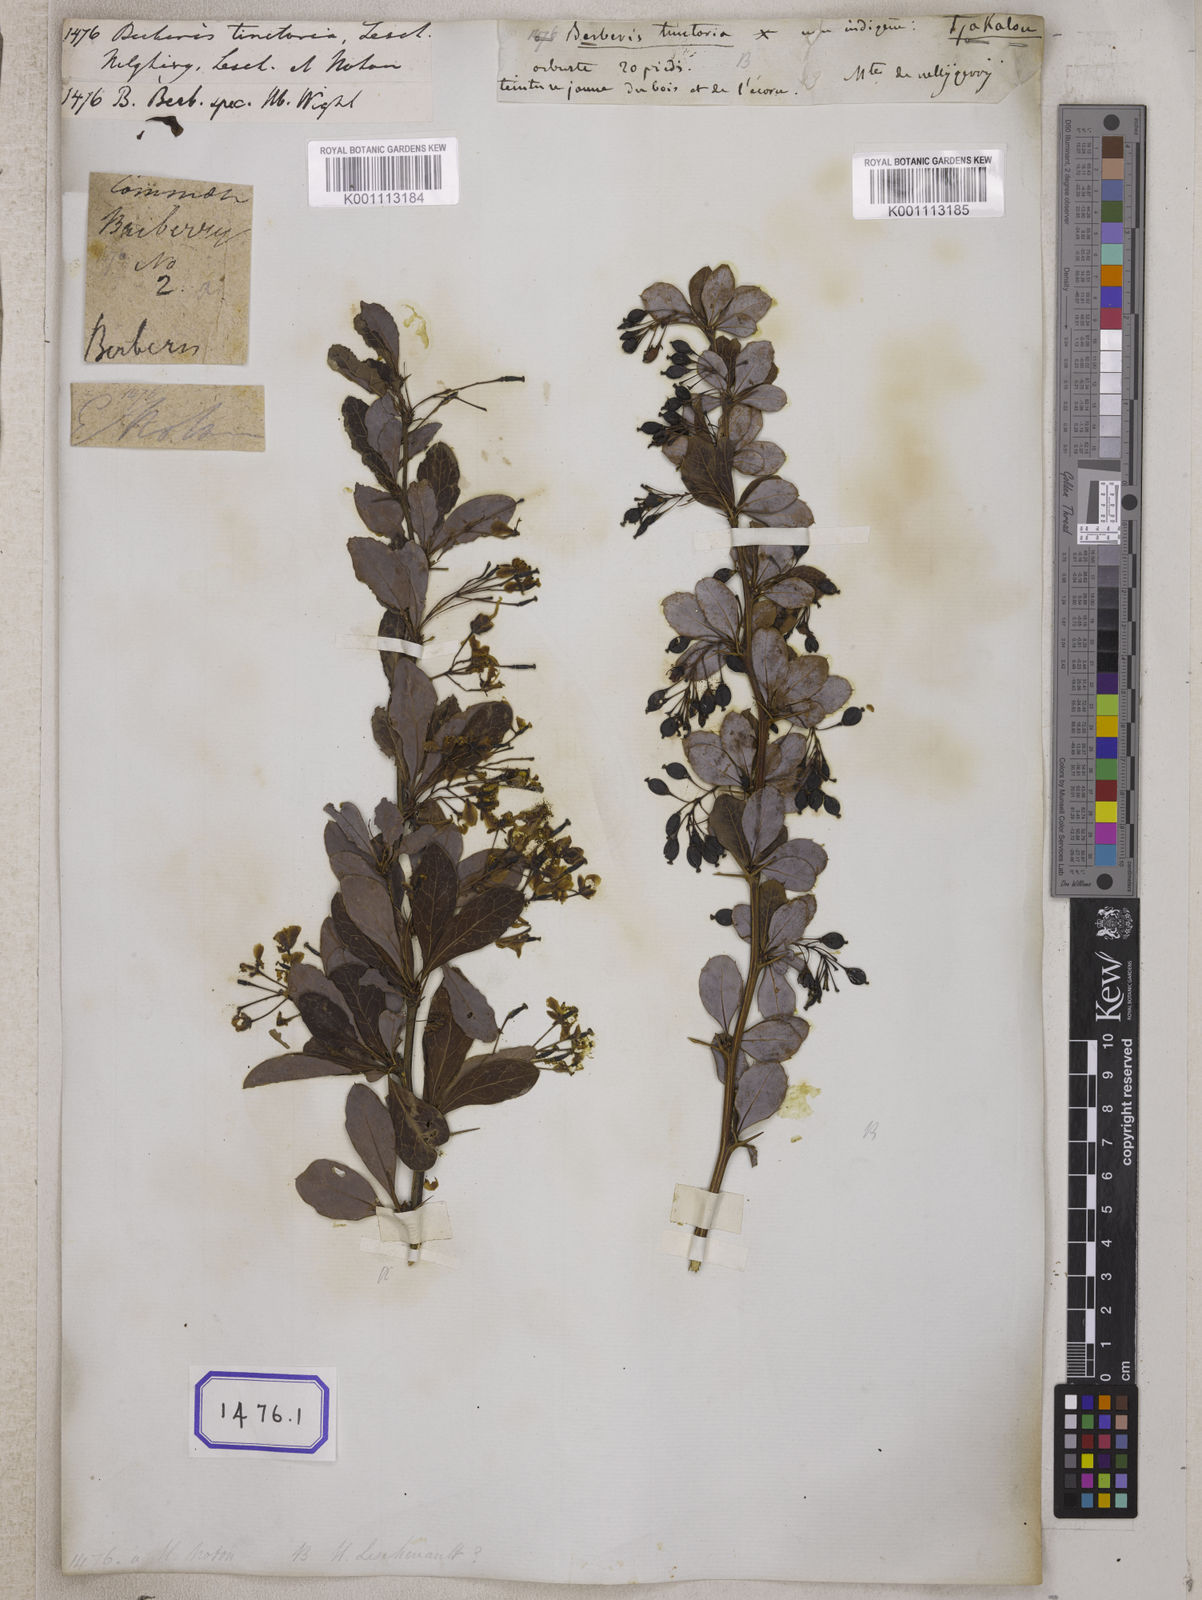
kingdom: Plantae
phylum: Tracheophyta
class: Magnoliopsida
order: Ranunculales
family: Berberidaceae
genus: Berberis
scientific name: Berberis tinctoria
